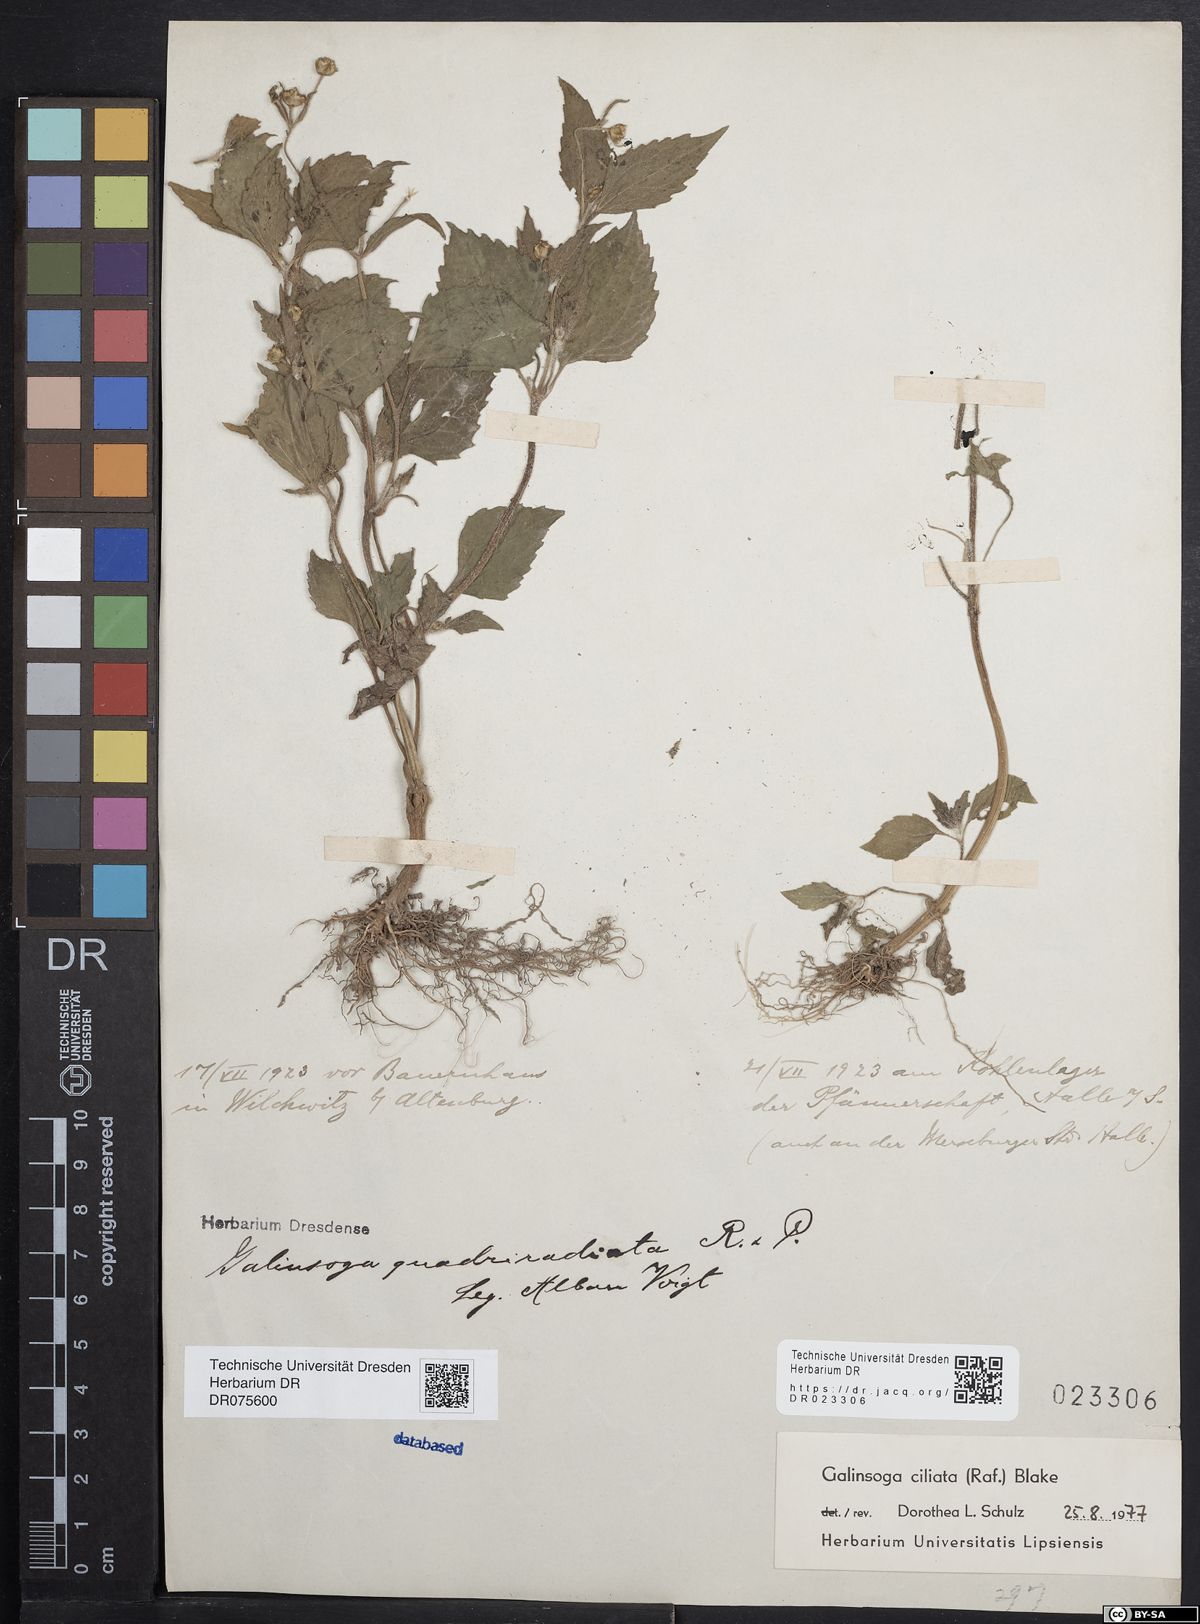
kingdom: Plantae
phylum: Tracheophyta
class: Magnoliopsida
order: Asterales
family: Asteraceae
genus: Galinsoga
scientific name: Galinsoga quadriradiata
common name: Shaggy soldier
